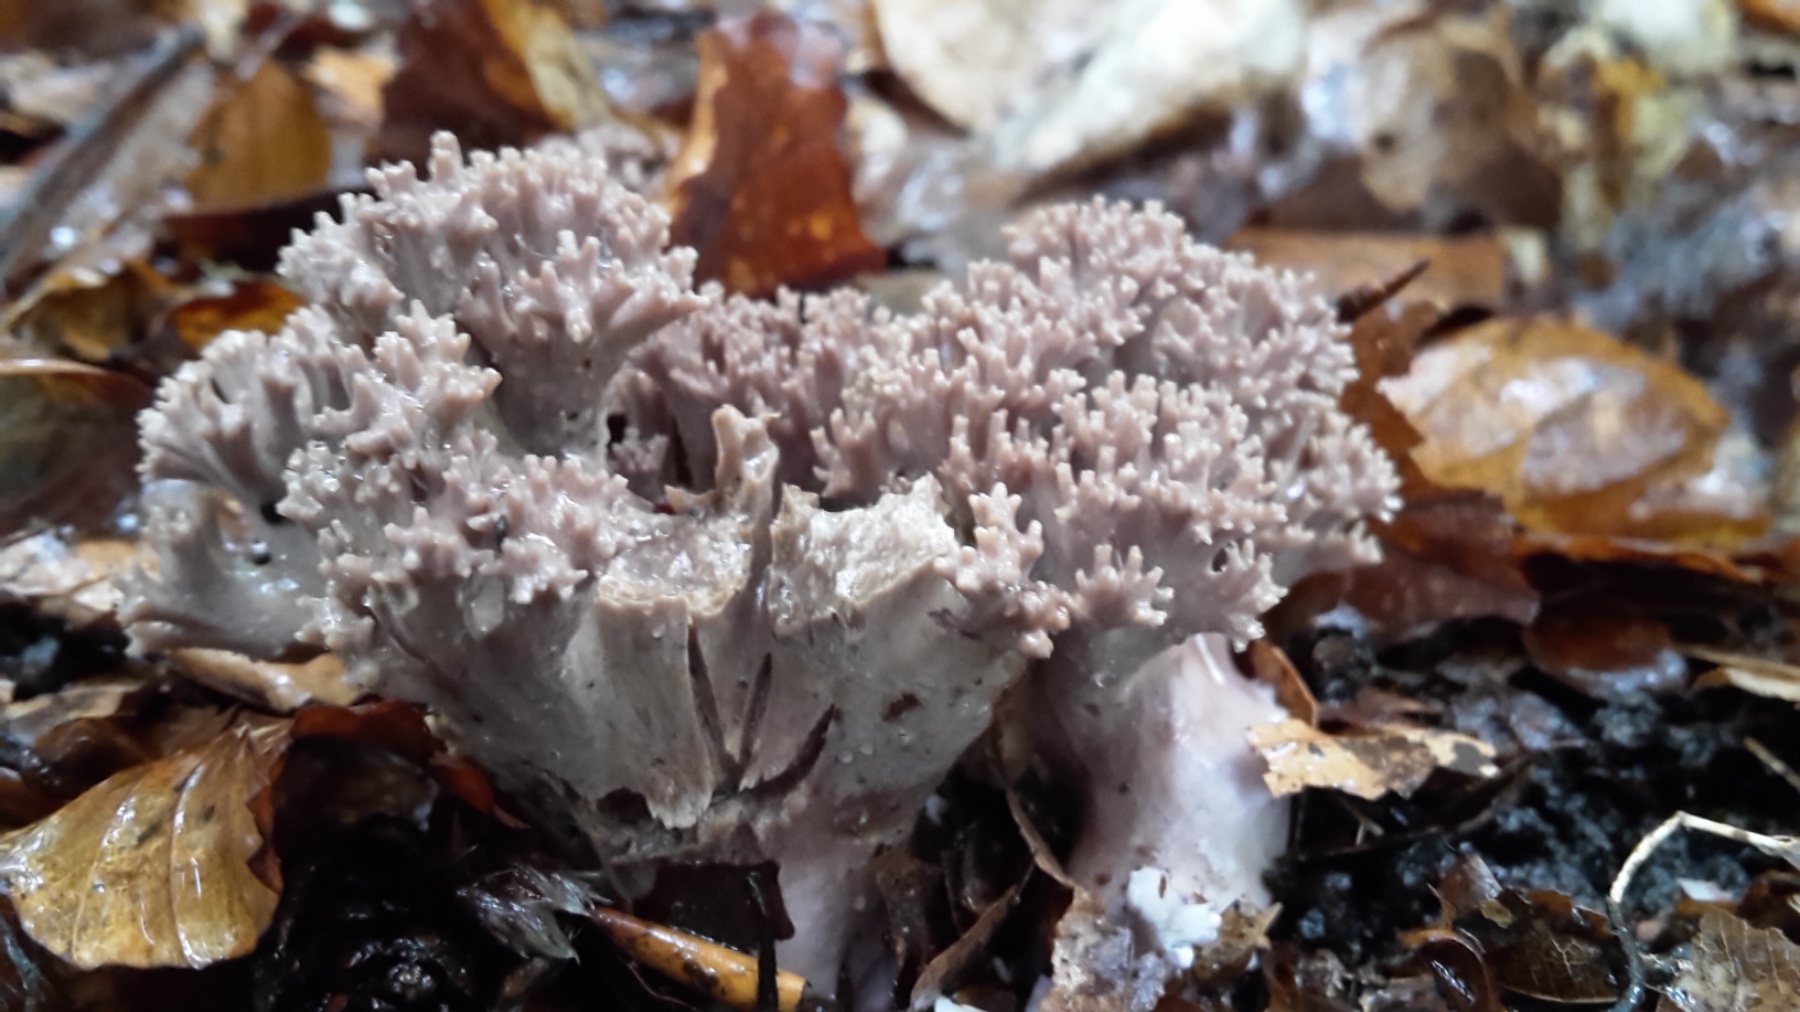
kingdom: Fungi
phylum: Basidiomycota
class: Agaricomycetes
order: Gomphales
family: Gomphaceae
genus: Ramaria
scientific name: Ramaria fumigata
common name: violet koralsvamp
